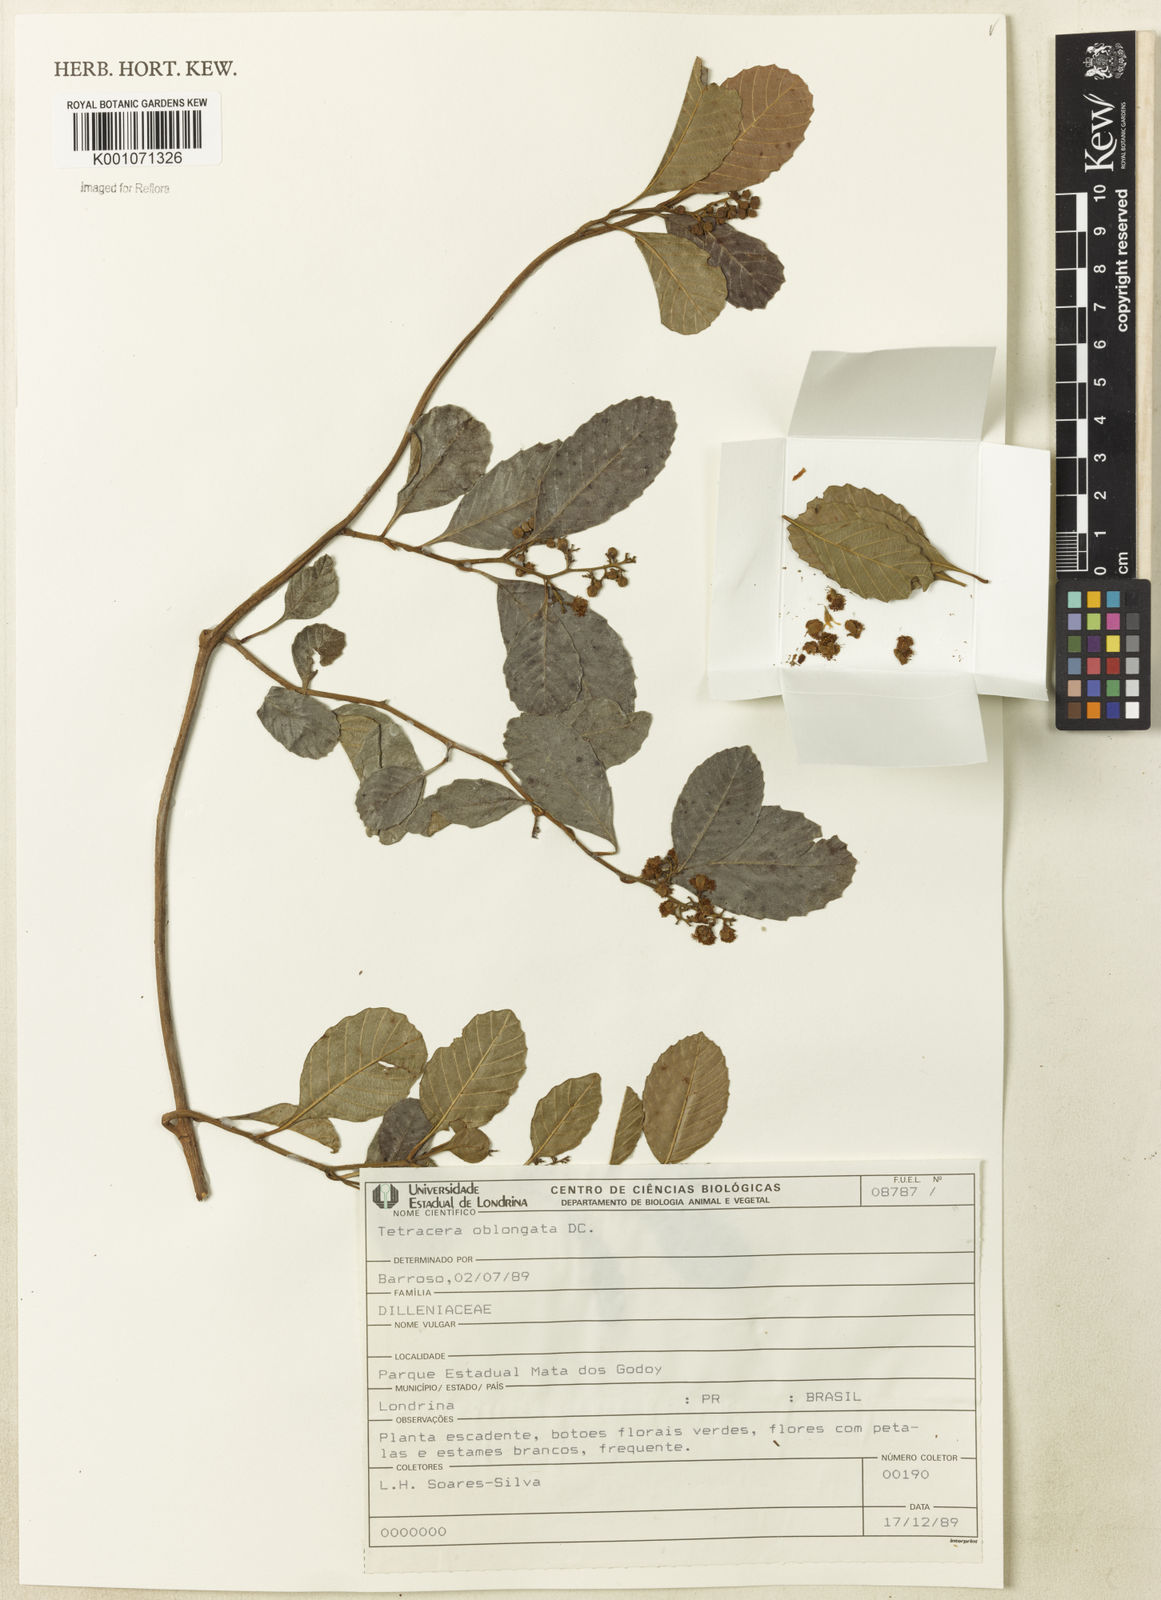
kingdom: Plantae
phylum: Tracheophyta
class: Magnoliopsida
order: Dilleniales
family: Dilleniaceae
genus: Tetracera
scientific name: Tetracera oblongata
